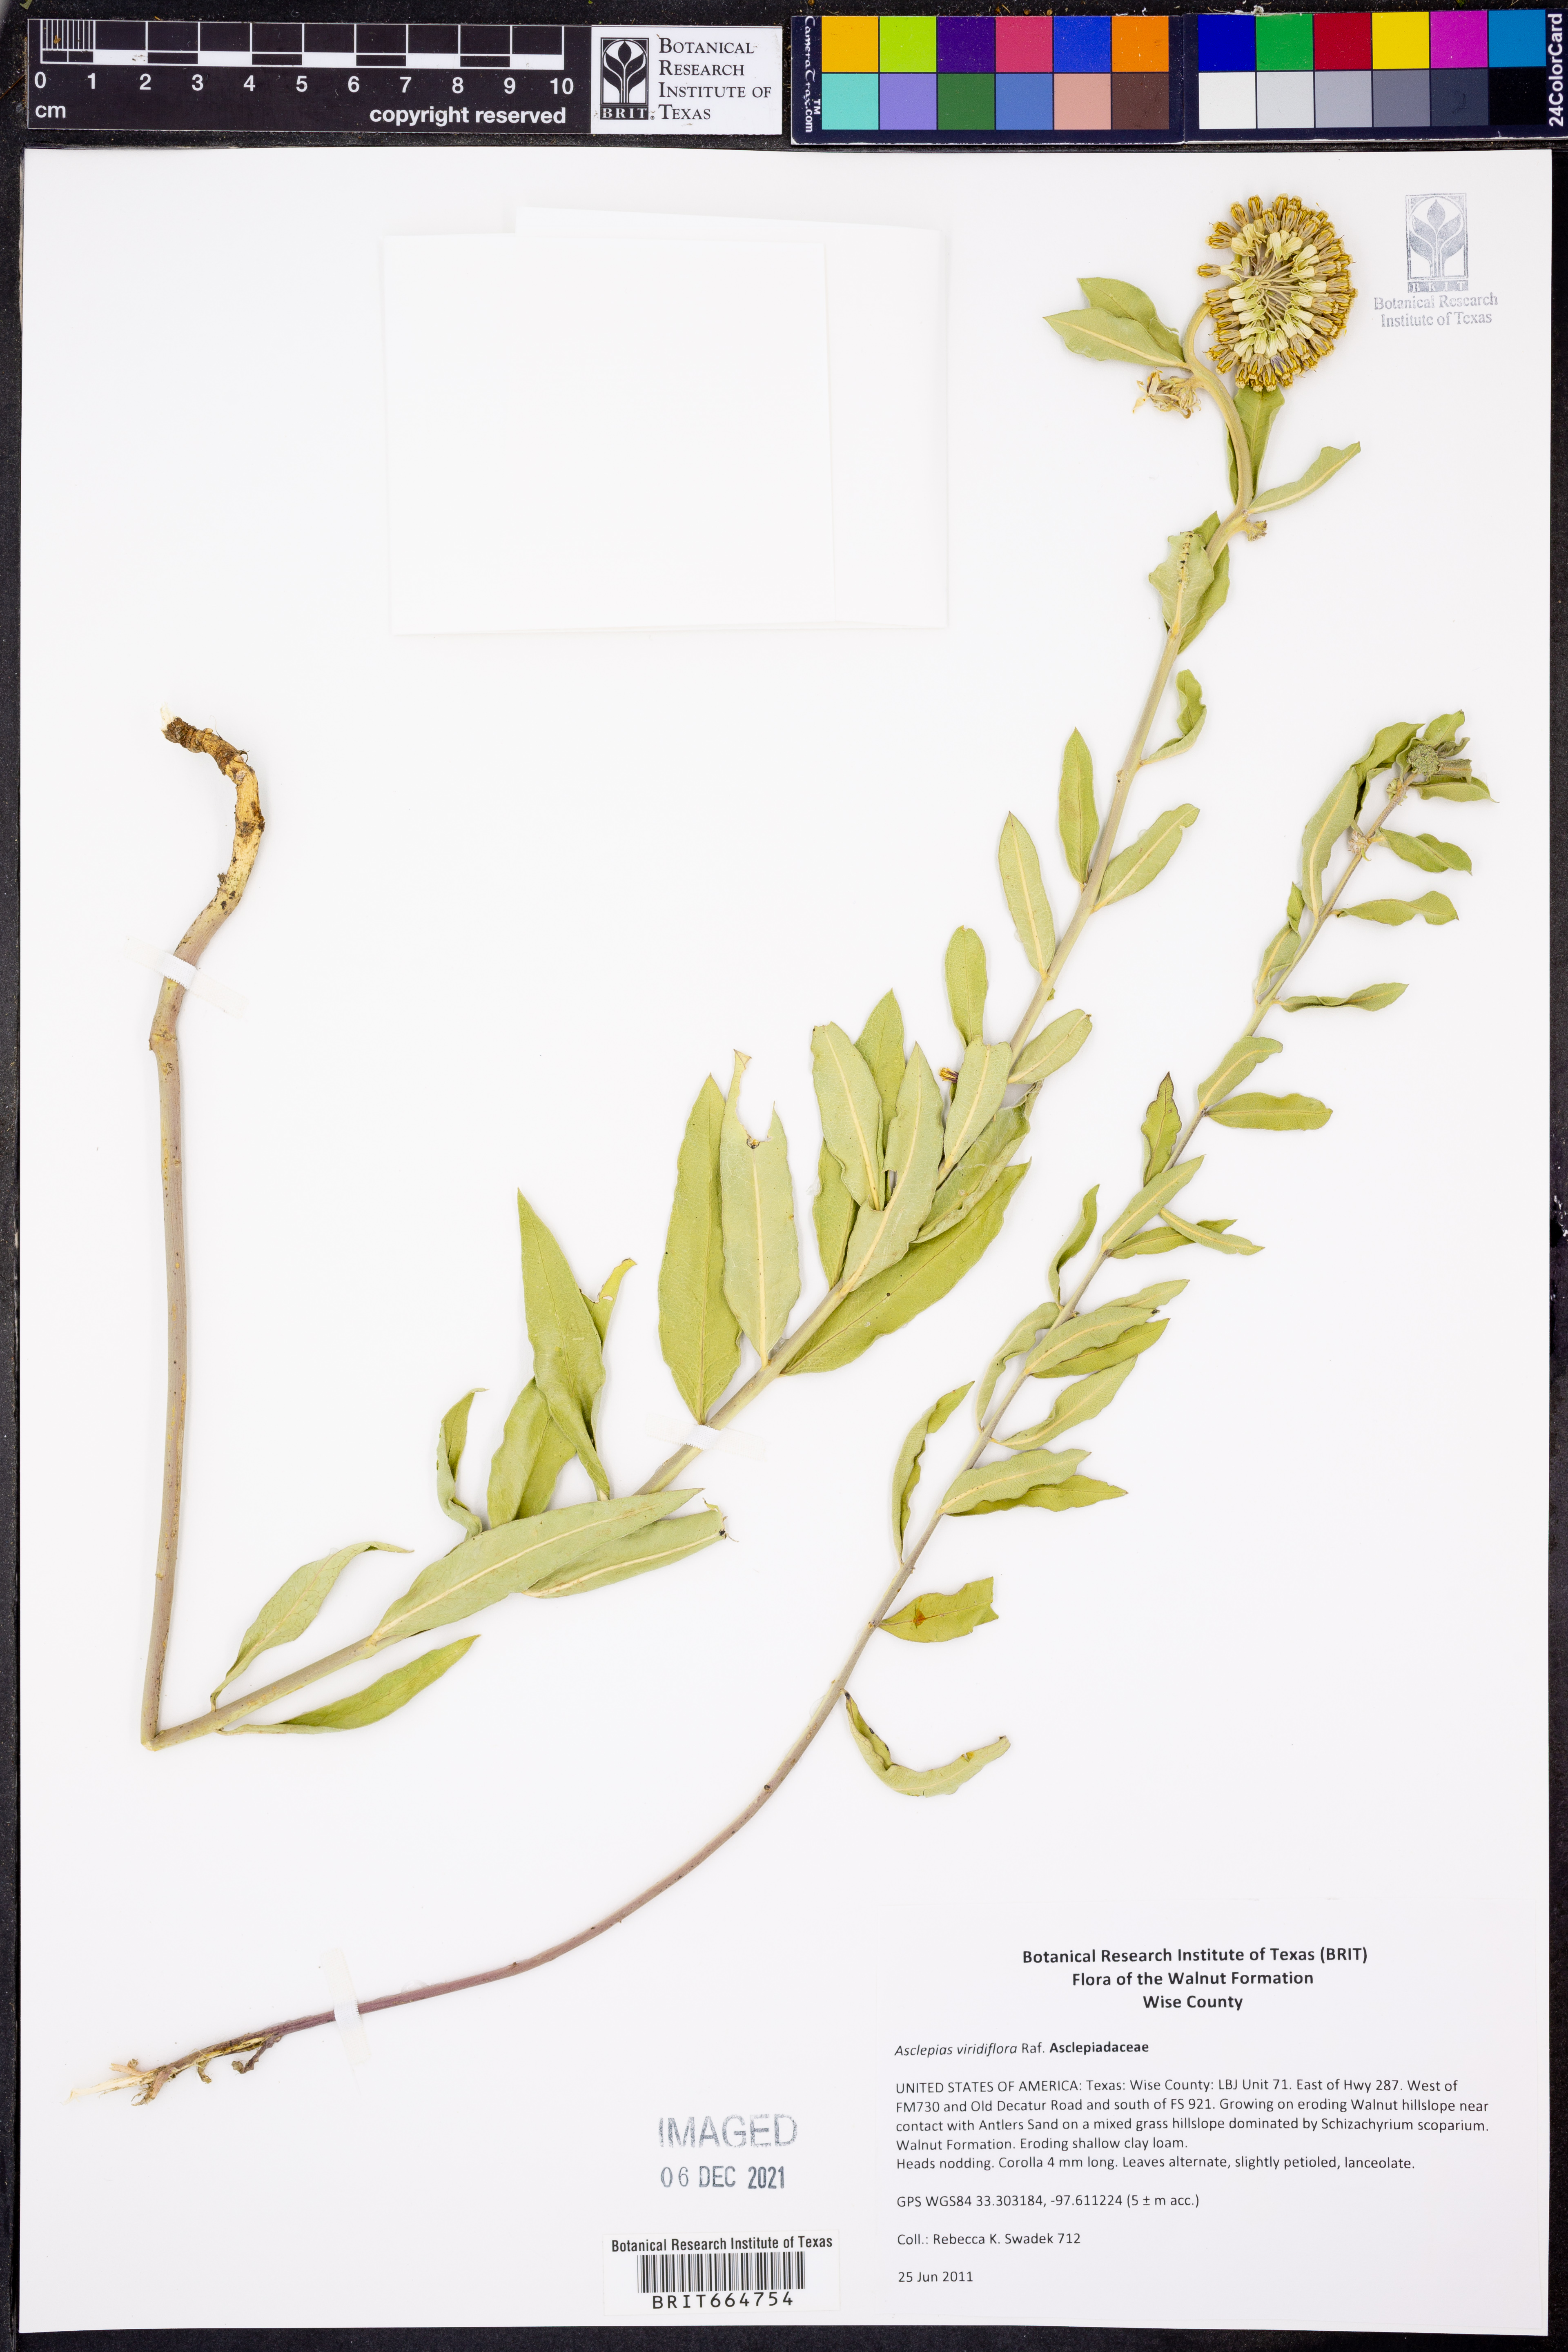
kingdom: Plantae
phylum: Tracheophyta
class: Magnoliopsida
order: Gentianales
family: Apocynaceae
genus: Asclepias
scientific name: Asclepias viridiflora
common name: Green comet milkweed
